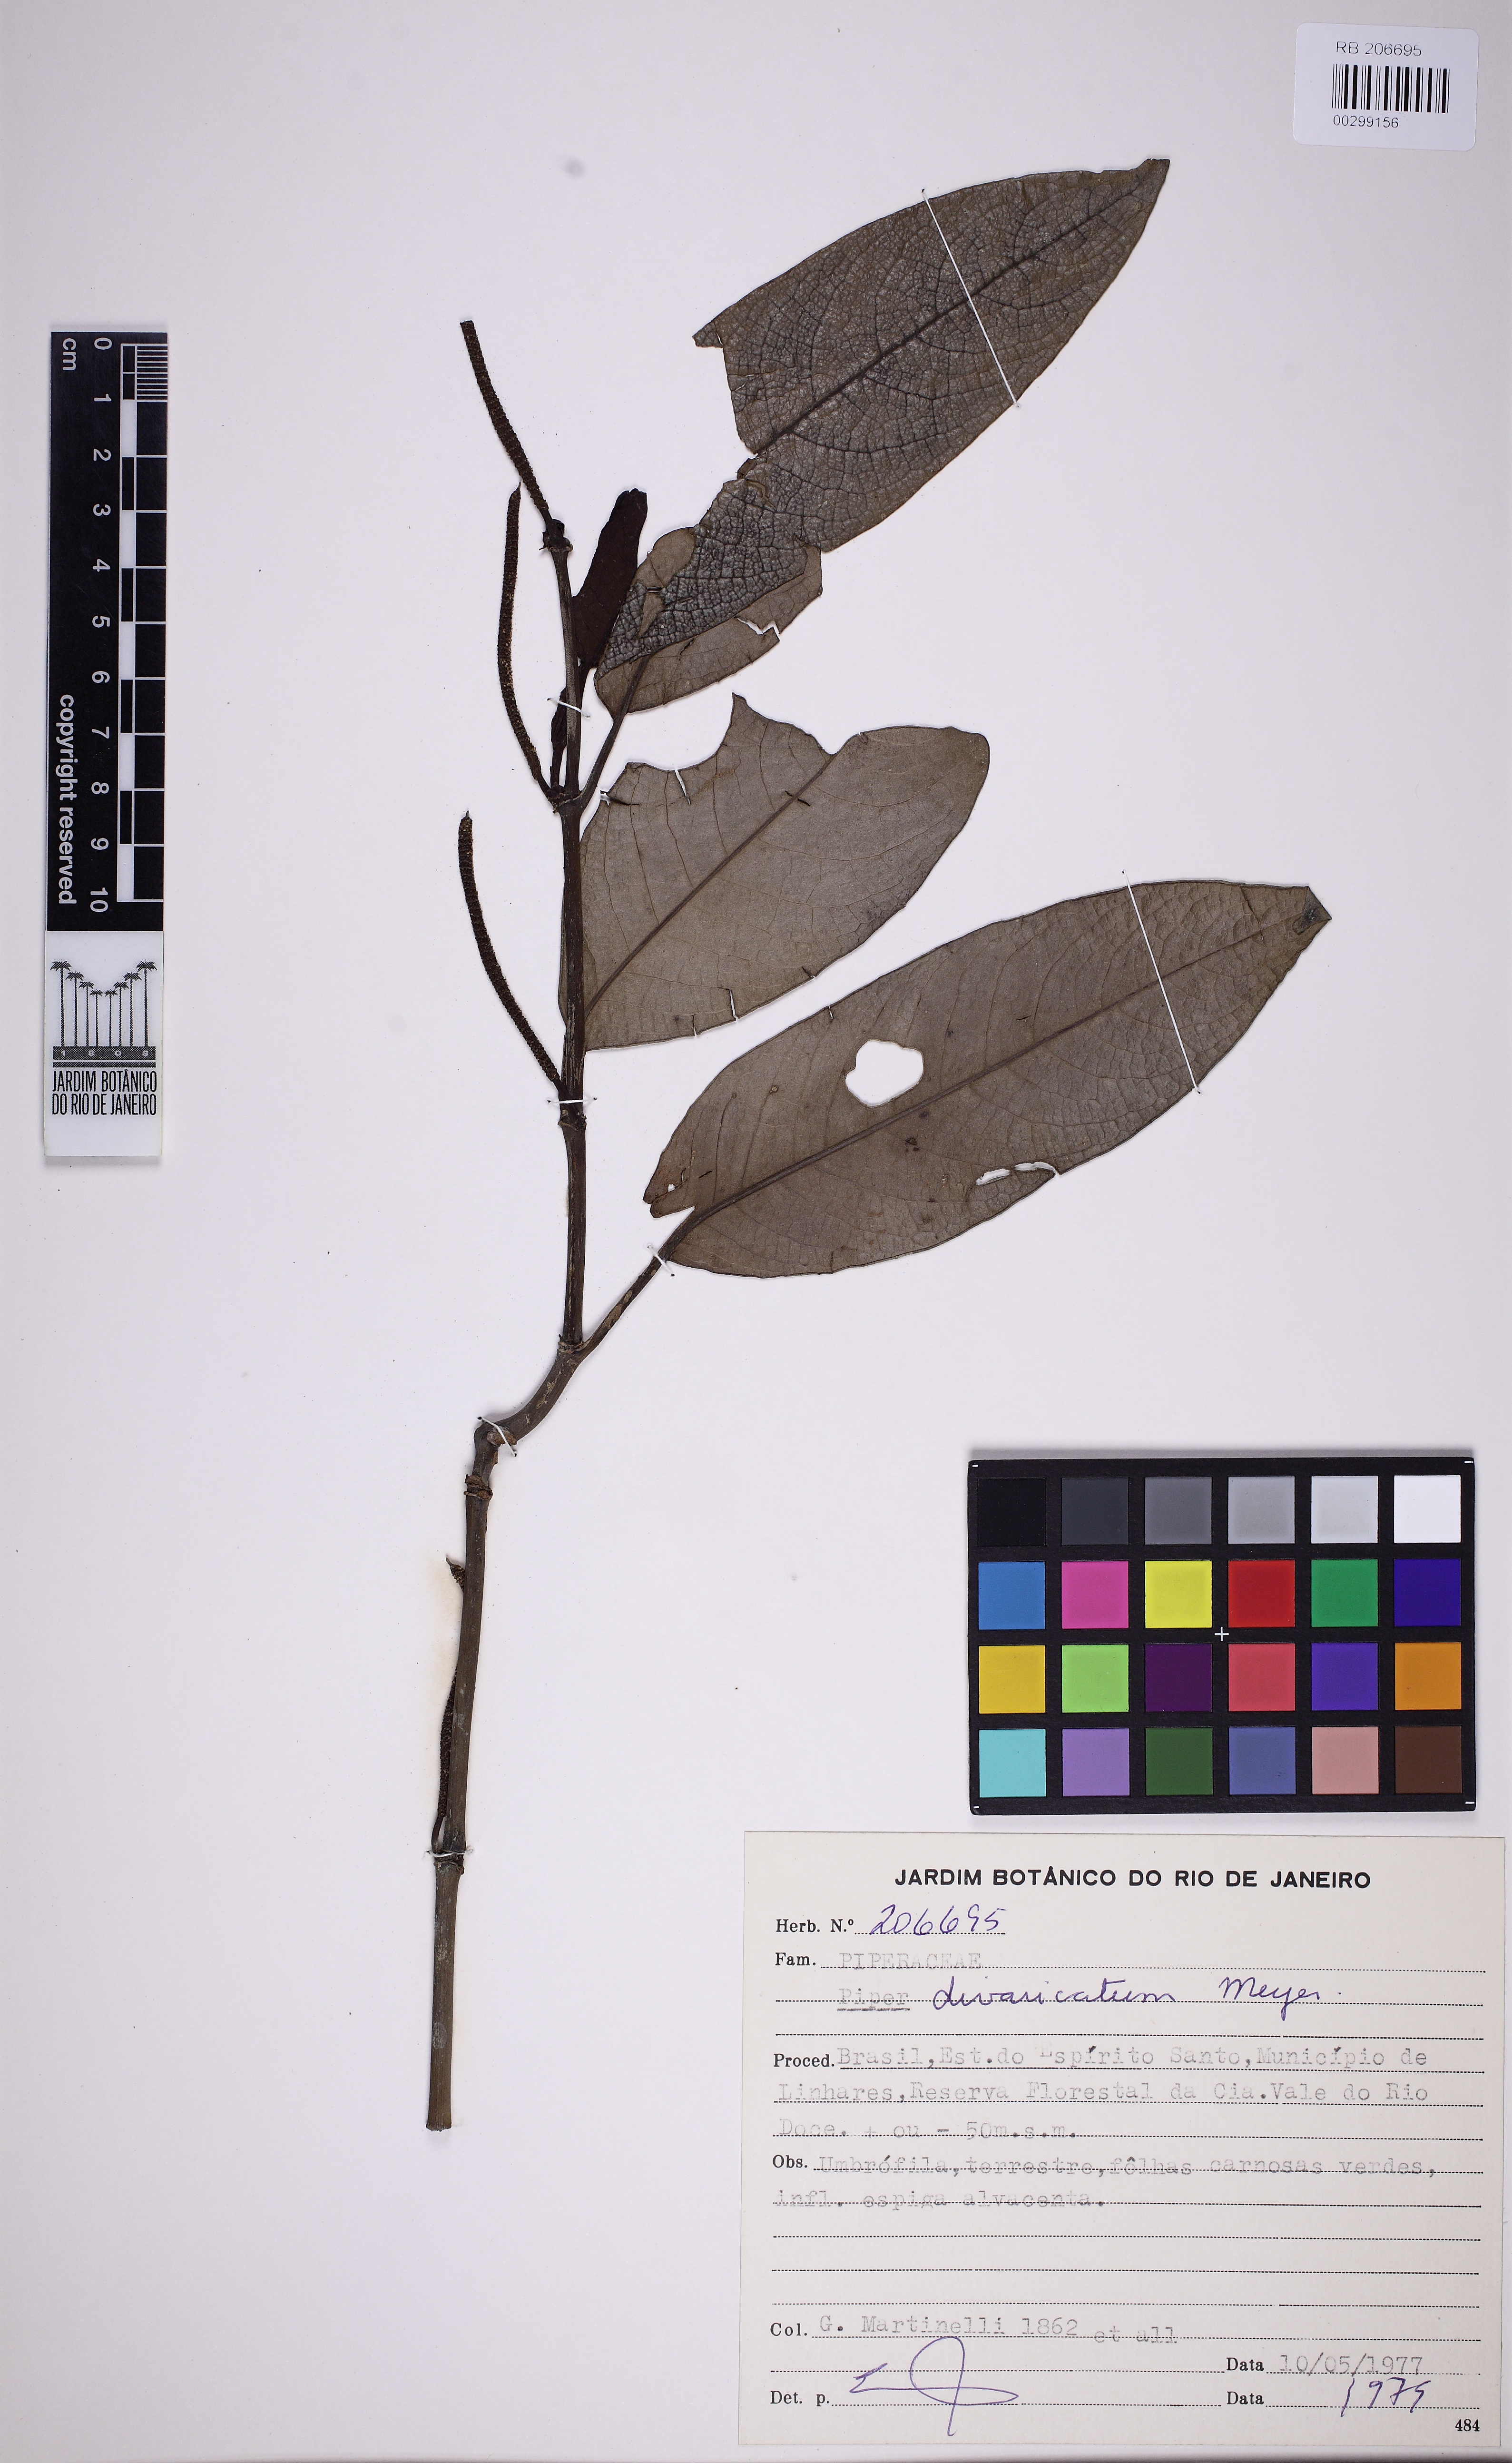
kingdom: Plantae
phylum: Tracheophyta
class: Magnoliopsida
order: Piperales
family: Piperaceae
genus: Piper
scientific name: Piper divaricatum
